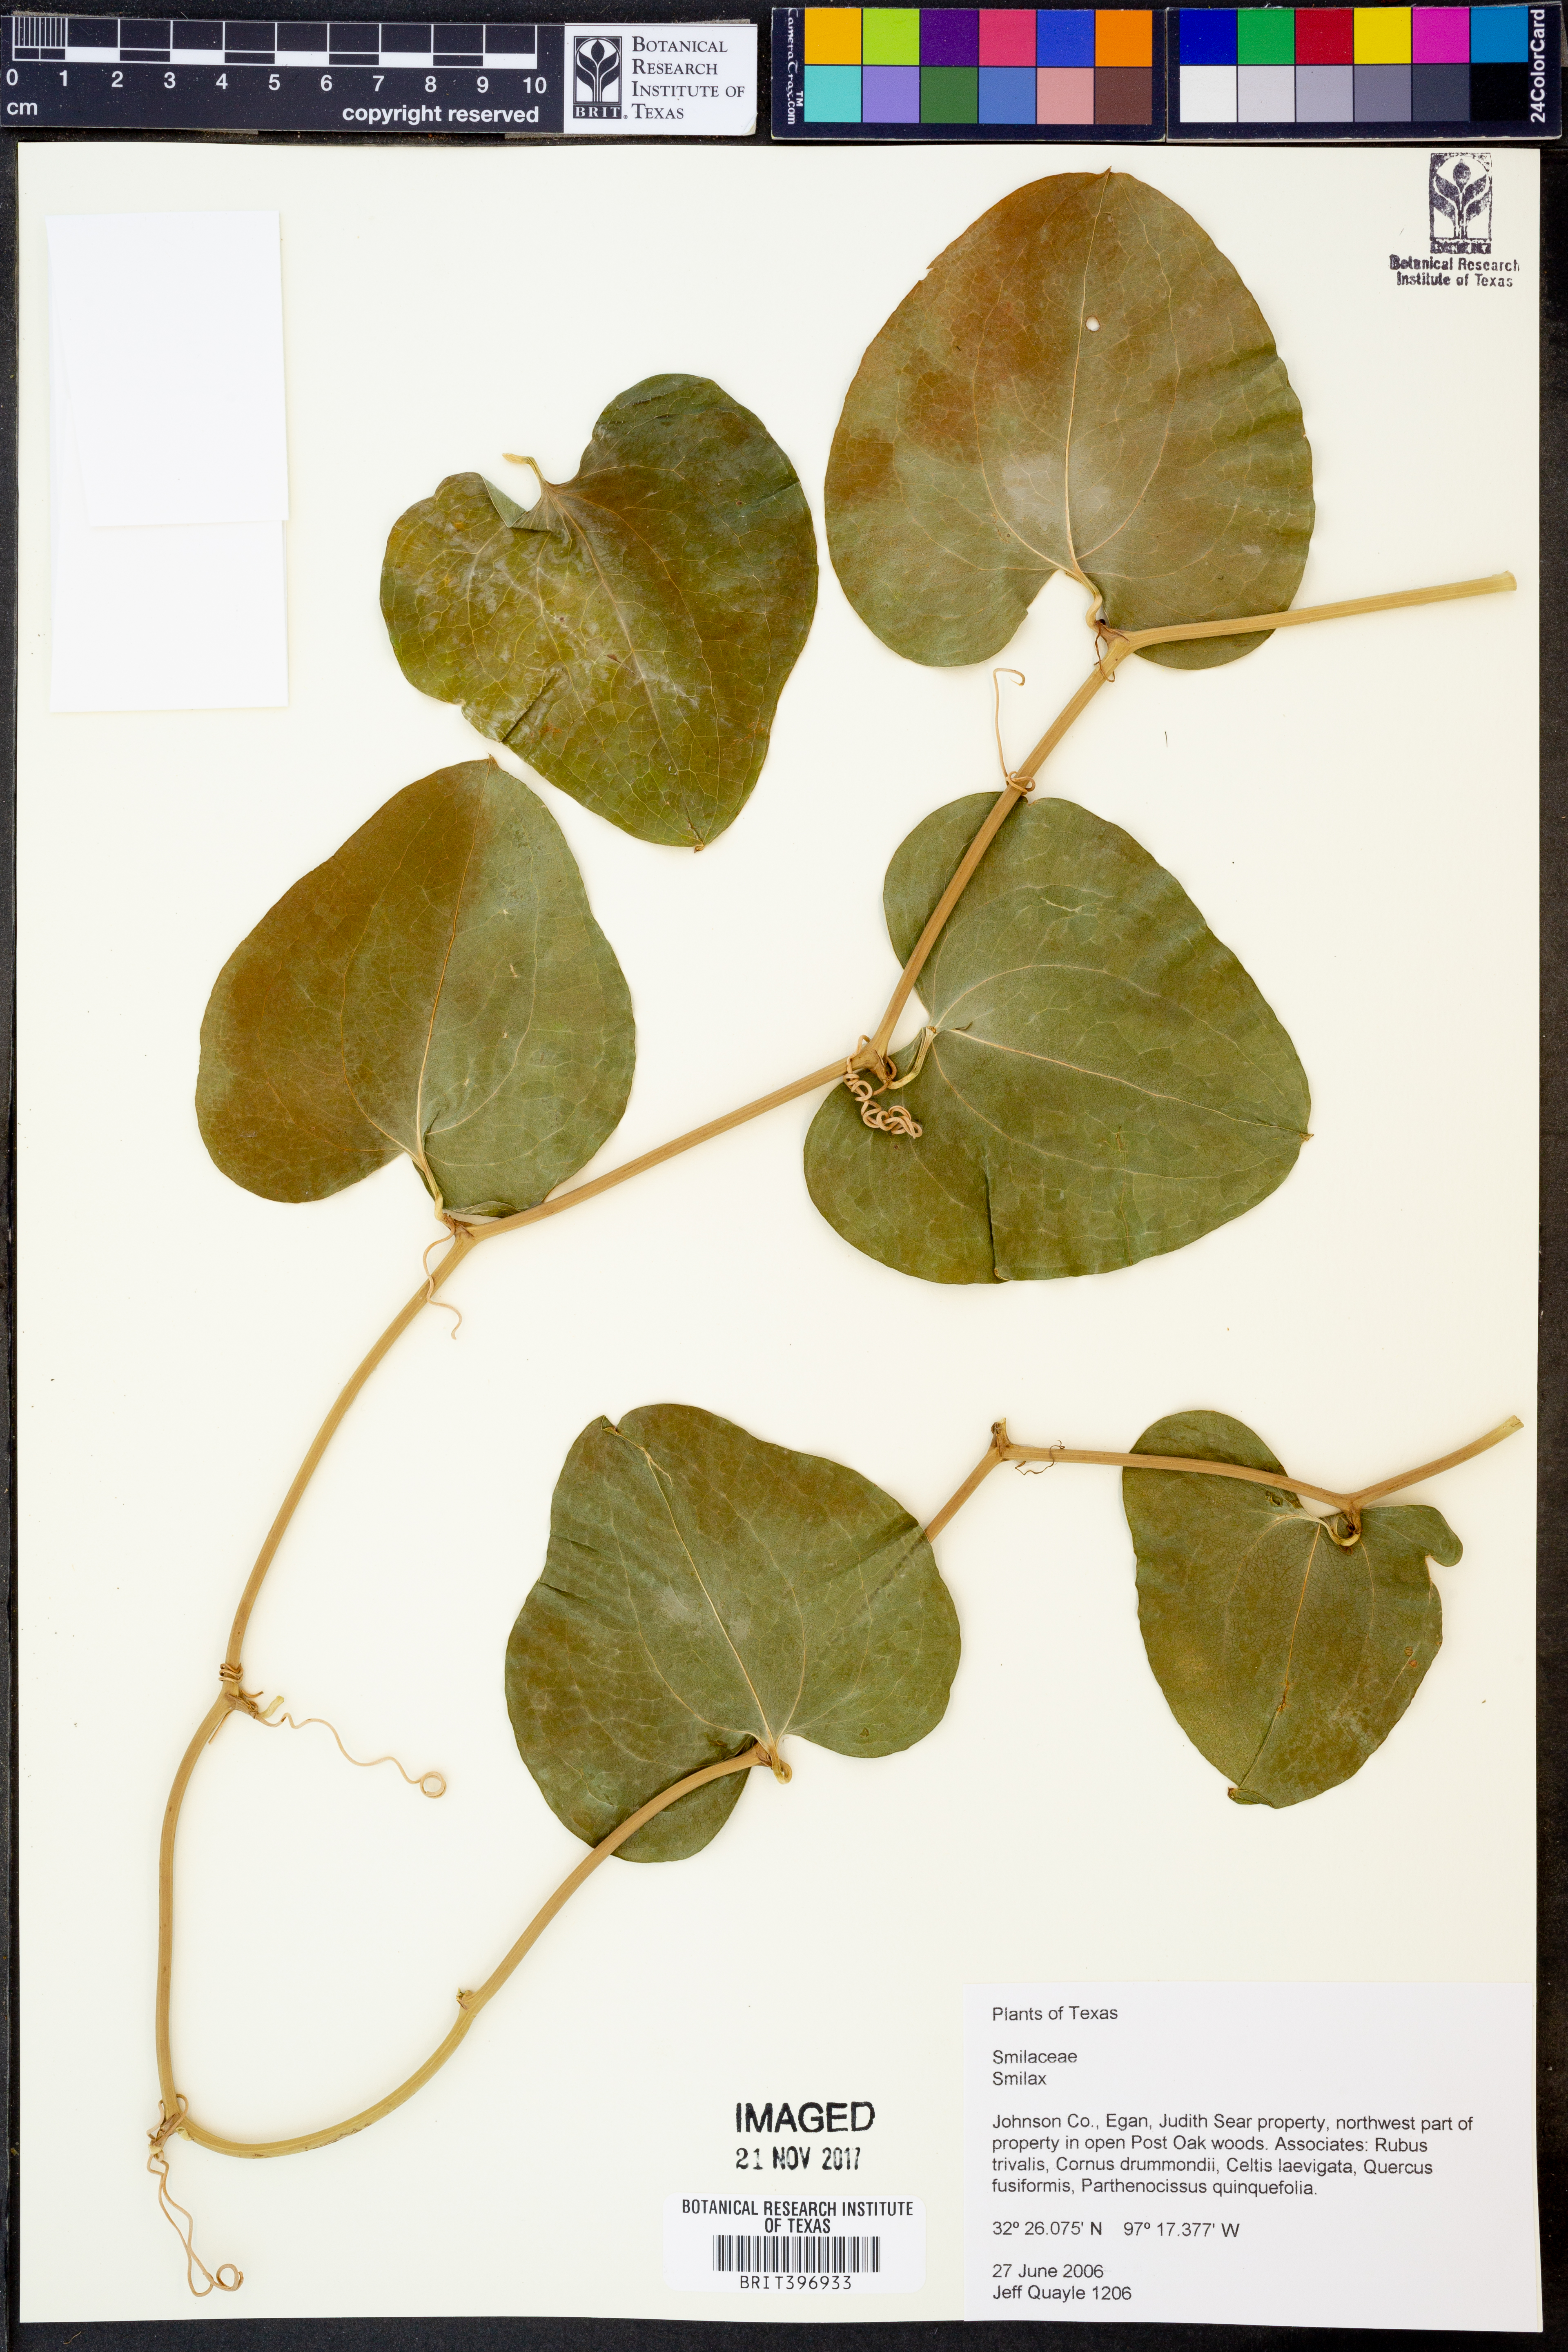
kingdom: Plantae
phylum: Tracheophyta
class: Liliopsida
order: Liliales
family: Smilacaceae
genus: Smilax
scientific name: Smilax
